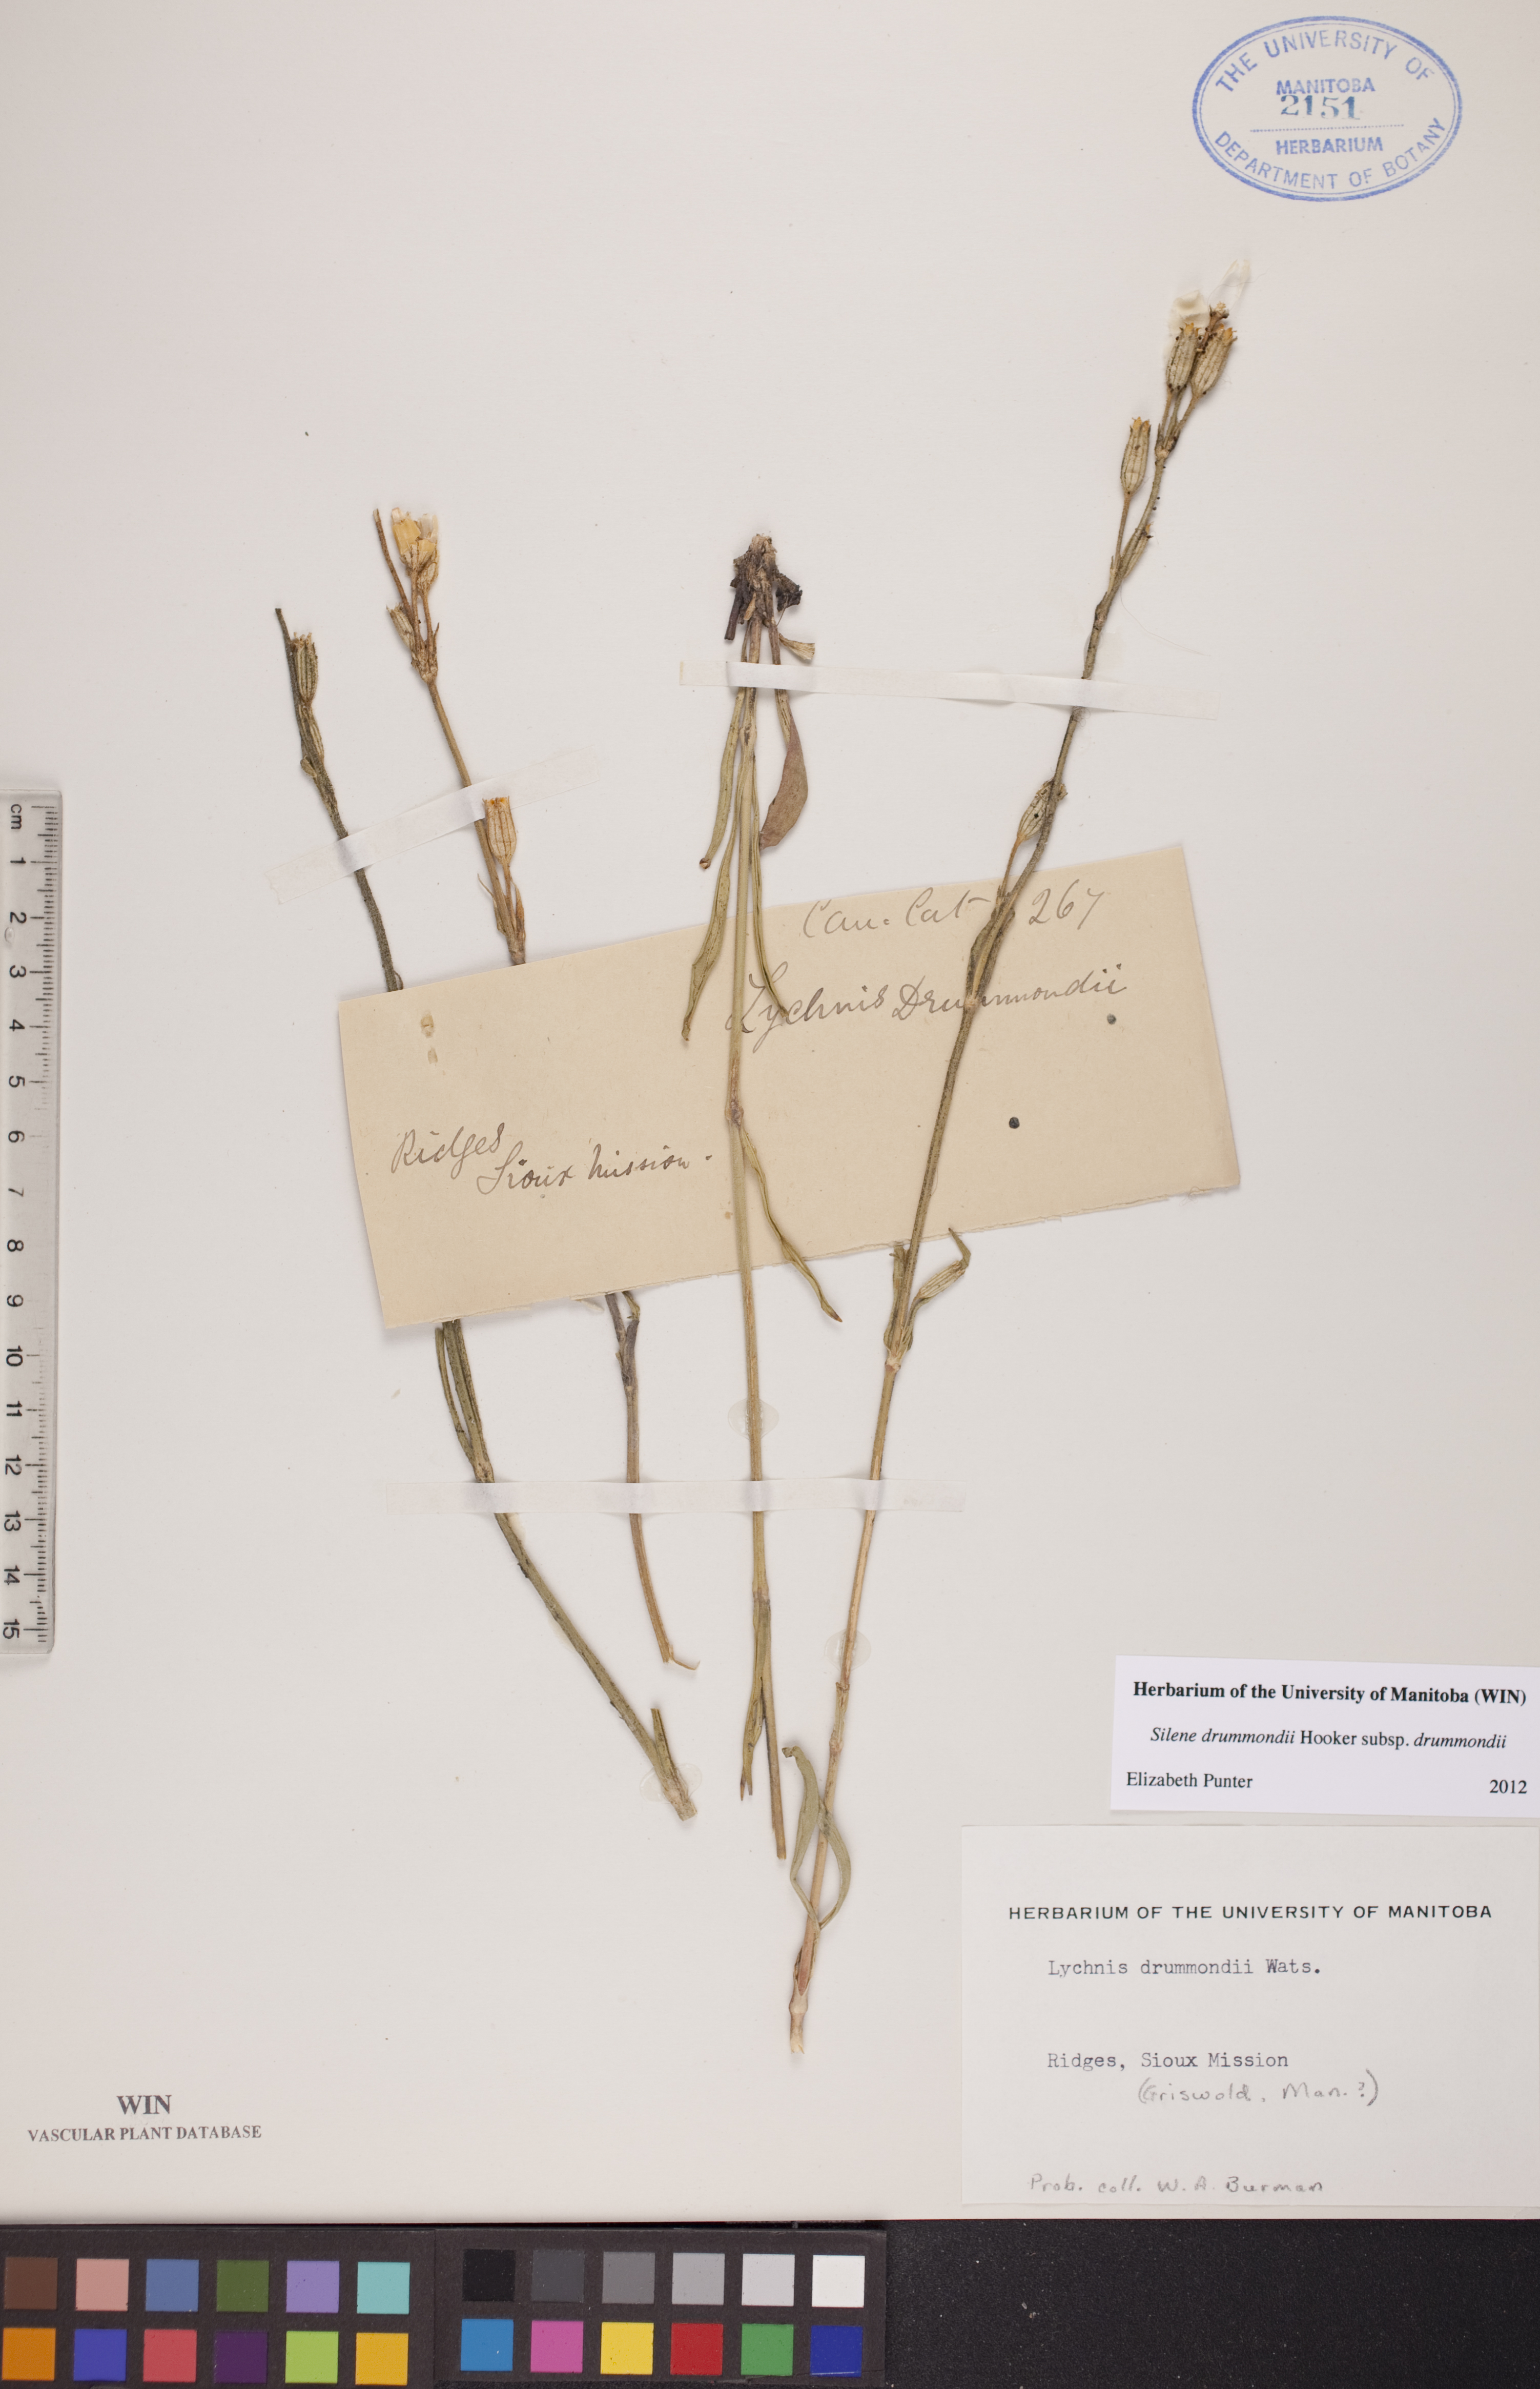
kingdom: Plantae
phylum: Tracheophyta
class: Magnoliopsida
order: Caryophyllales
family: Caryophyllaceae
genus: Silene
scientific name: Silene drummondii
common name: Drummond's catchfly
